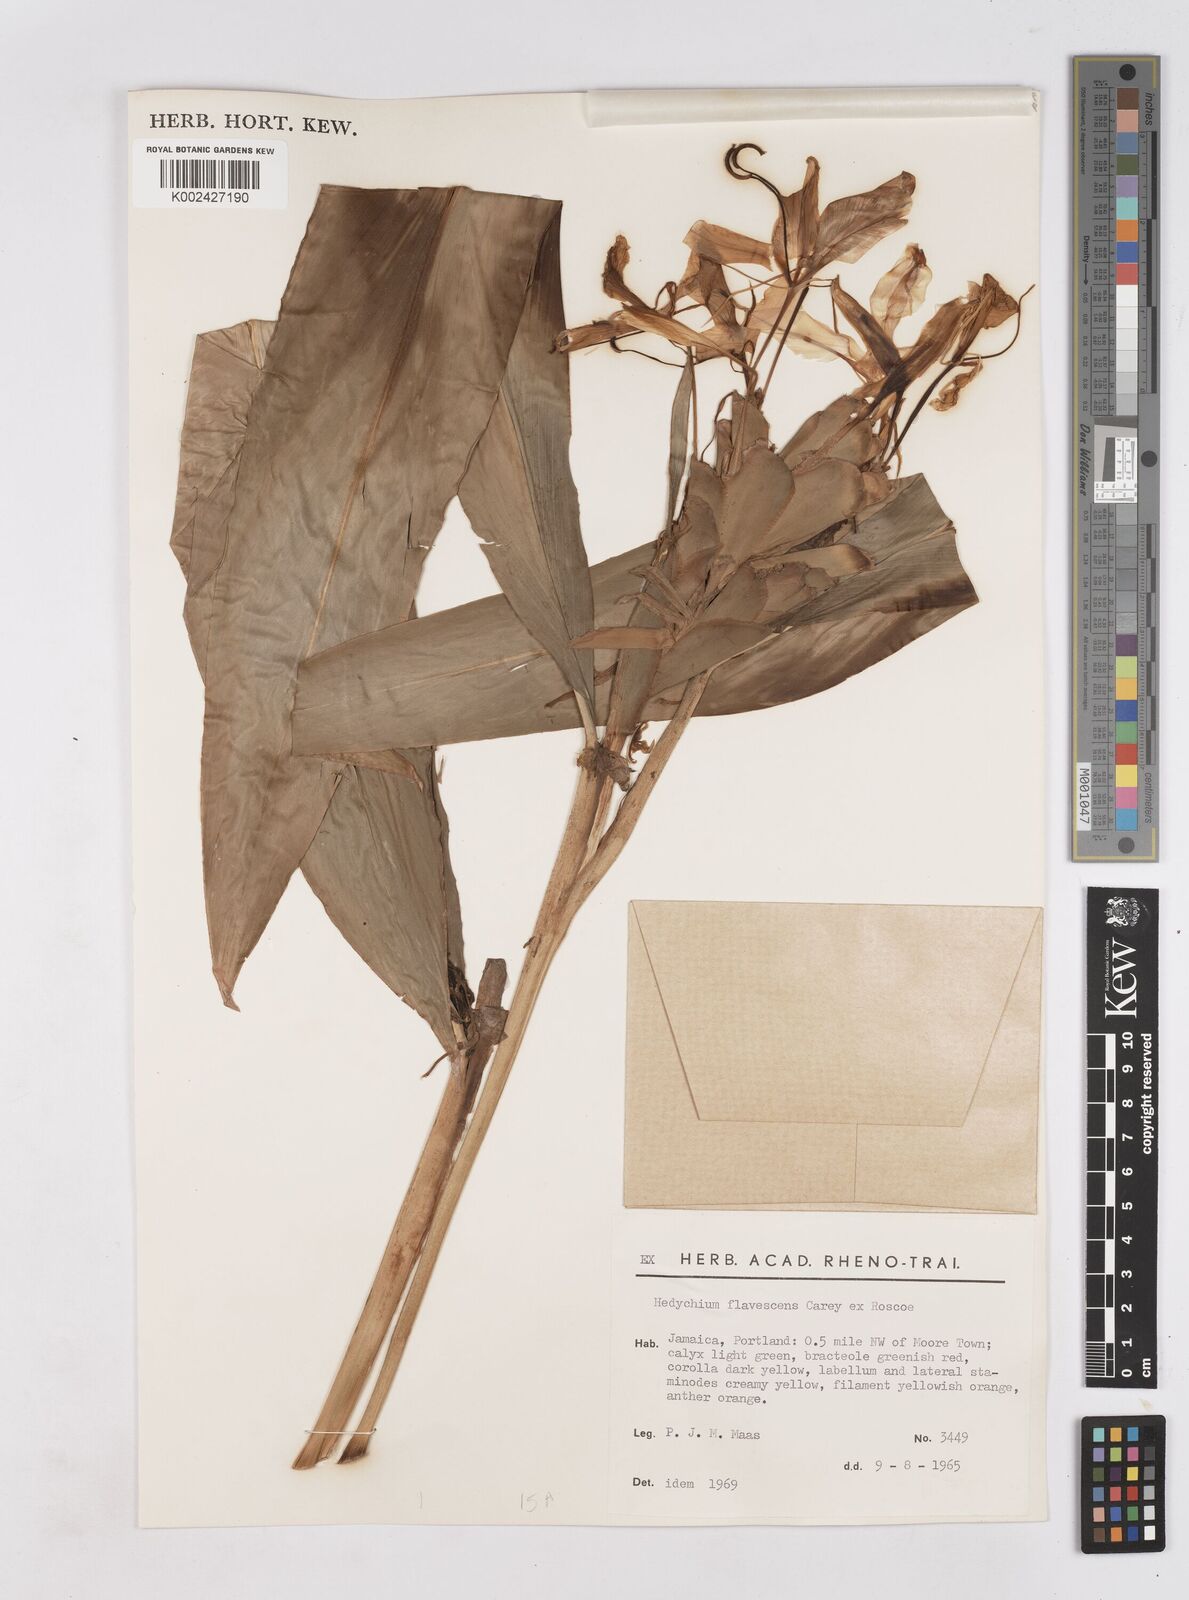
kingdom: Plantae
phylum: Tracheophyta
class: Liliopsida
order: Zingiberales
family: Zingiberaceae
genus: Hedychium
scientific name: Hedychium flavescens
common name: Yellow ginger
